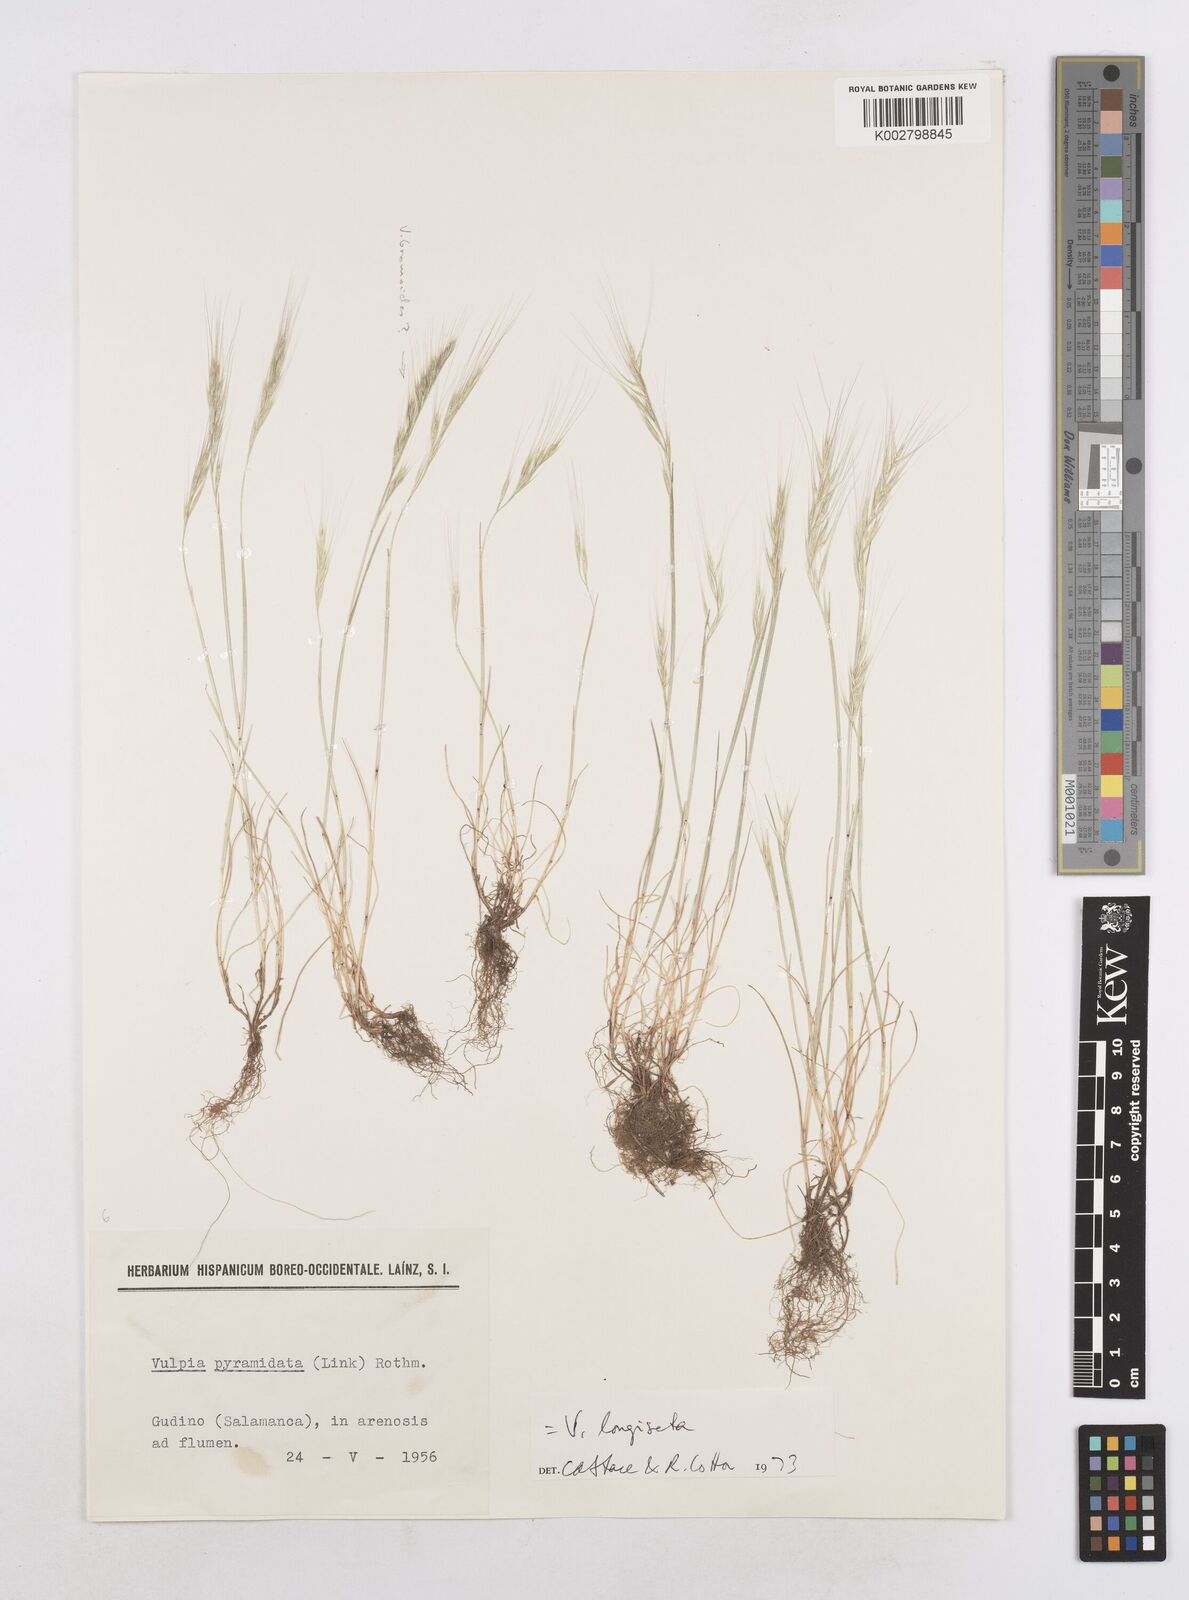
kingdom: Plantae
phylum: Tracheophyta
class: Liliopsida
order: Poales
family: Poaceae
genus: Festuca
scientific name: Festuca membranacea
